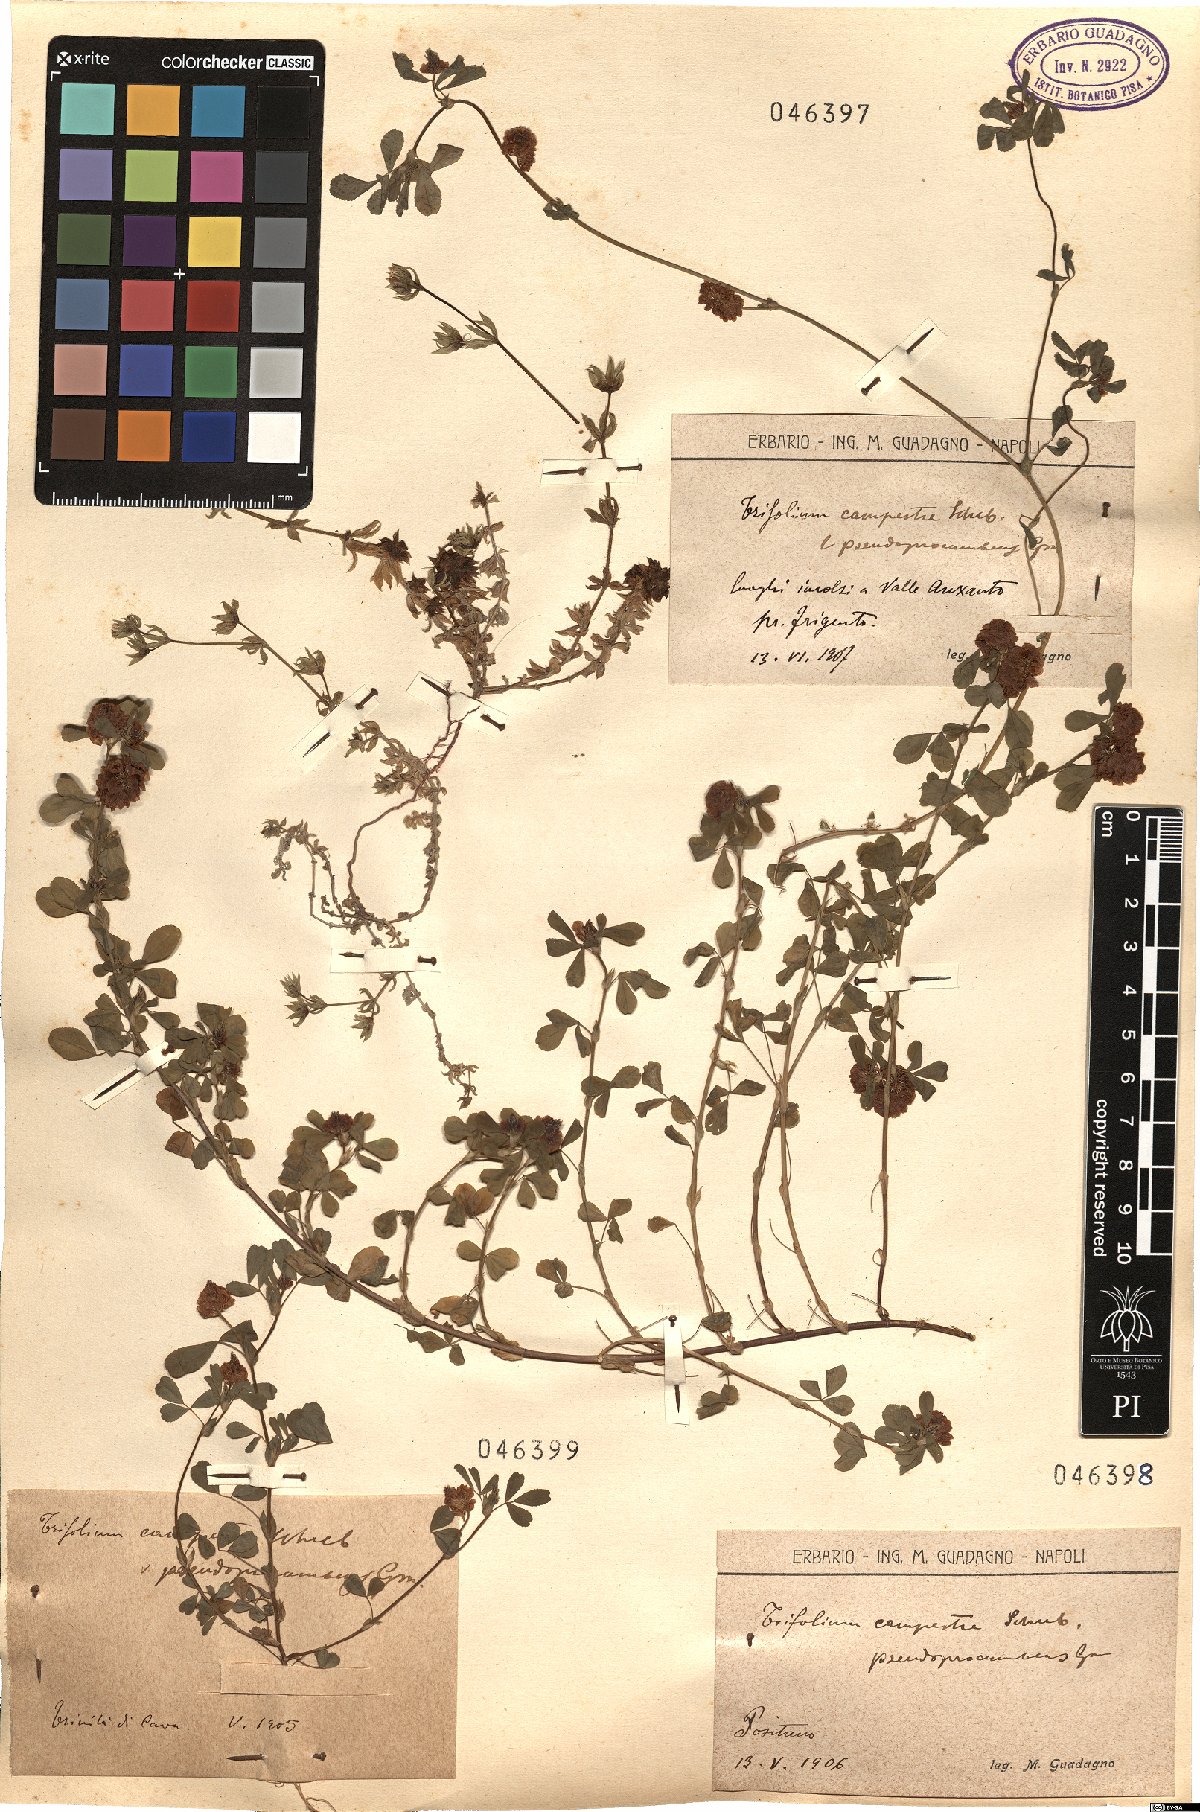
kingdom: Plantae
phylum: Tracheophyta
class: Magnoliopsida
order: Fabales
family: Fabaceae
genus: Trifolium
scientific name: Trifolium campestre
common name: Field clover
